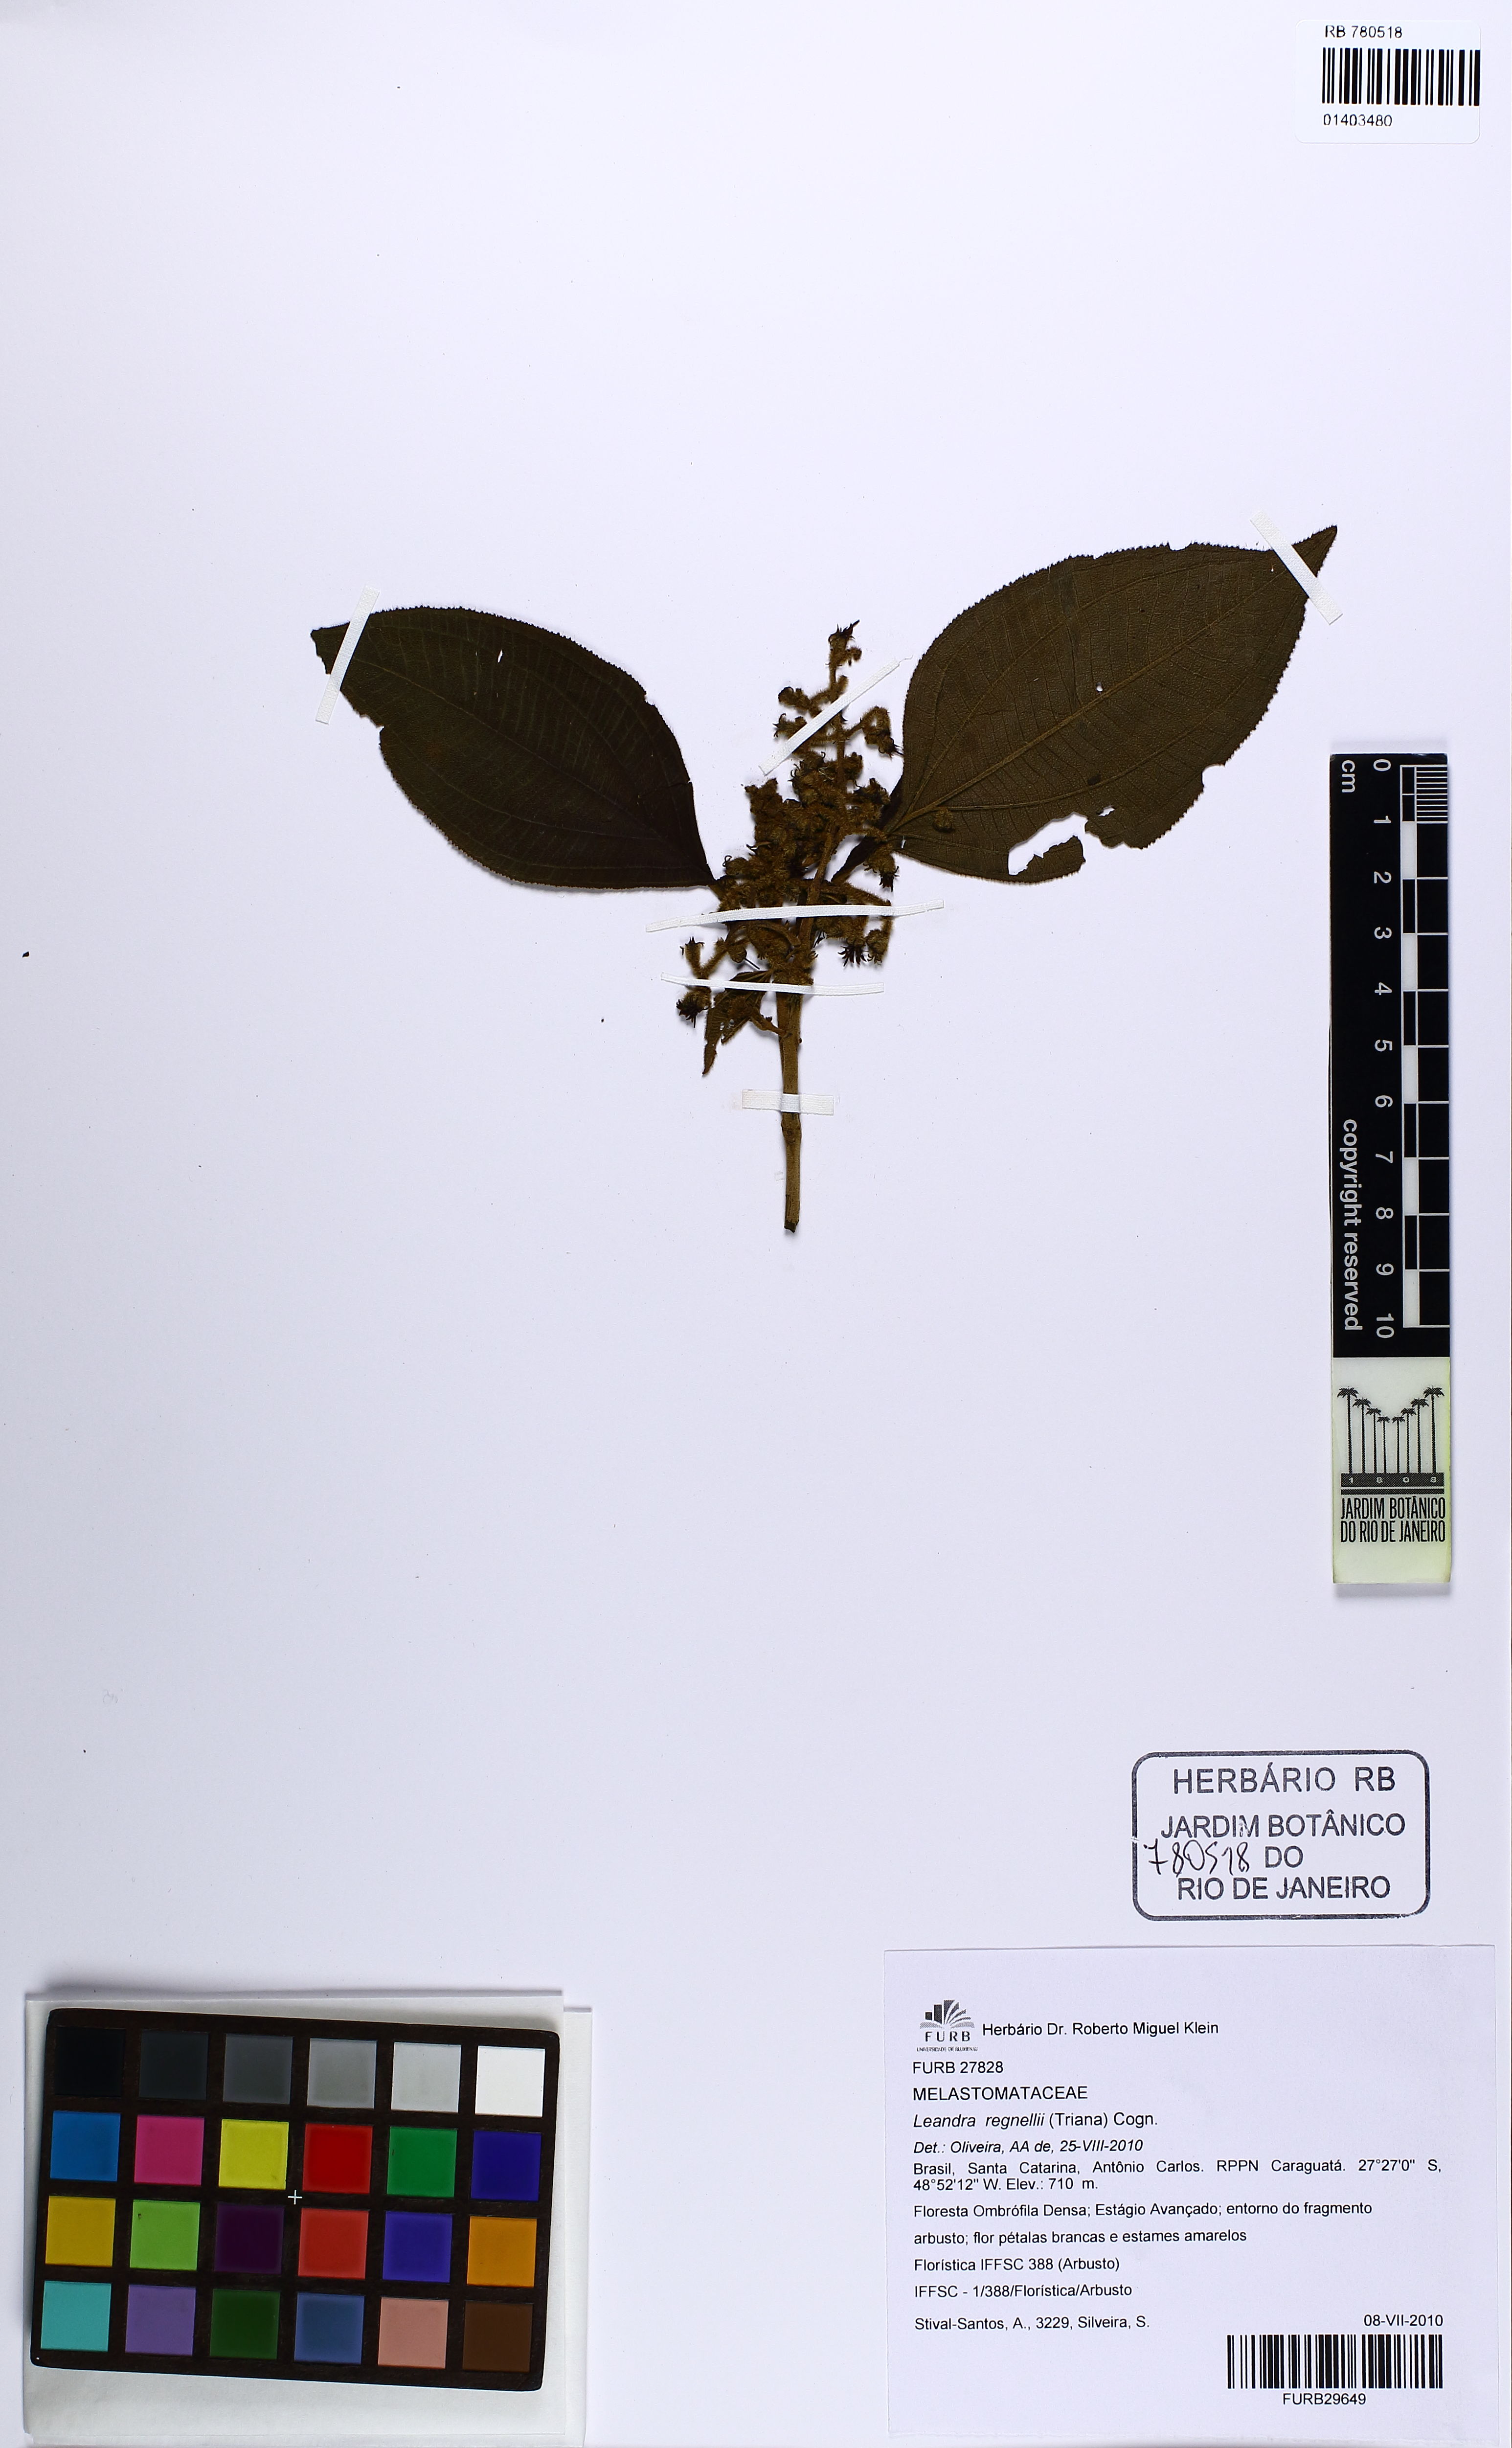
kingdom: Plantae
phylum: Tracheophyta
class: Magnoliopsida
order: Myrtales
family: Melastomataceae
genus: Miconia
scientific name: Miconia alterninervia
